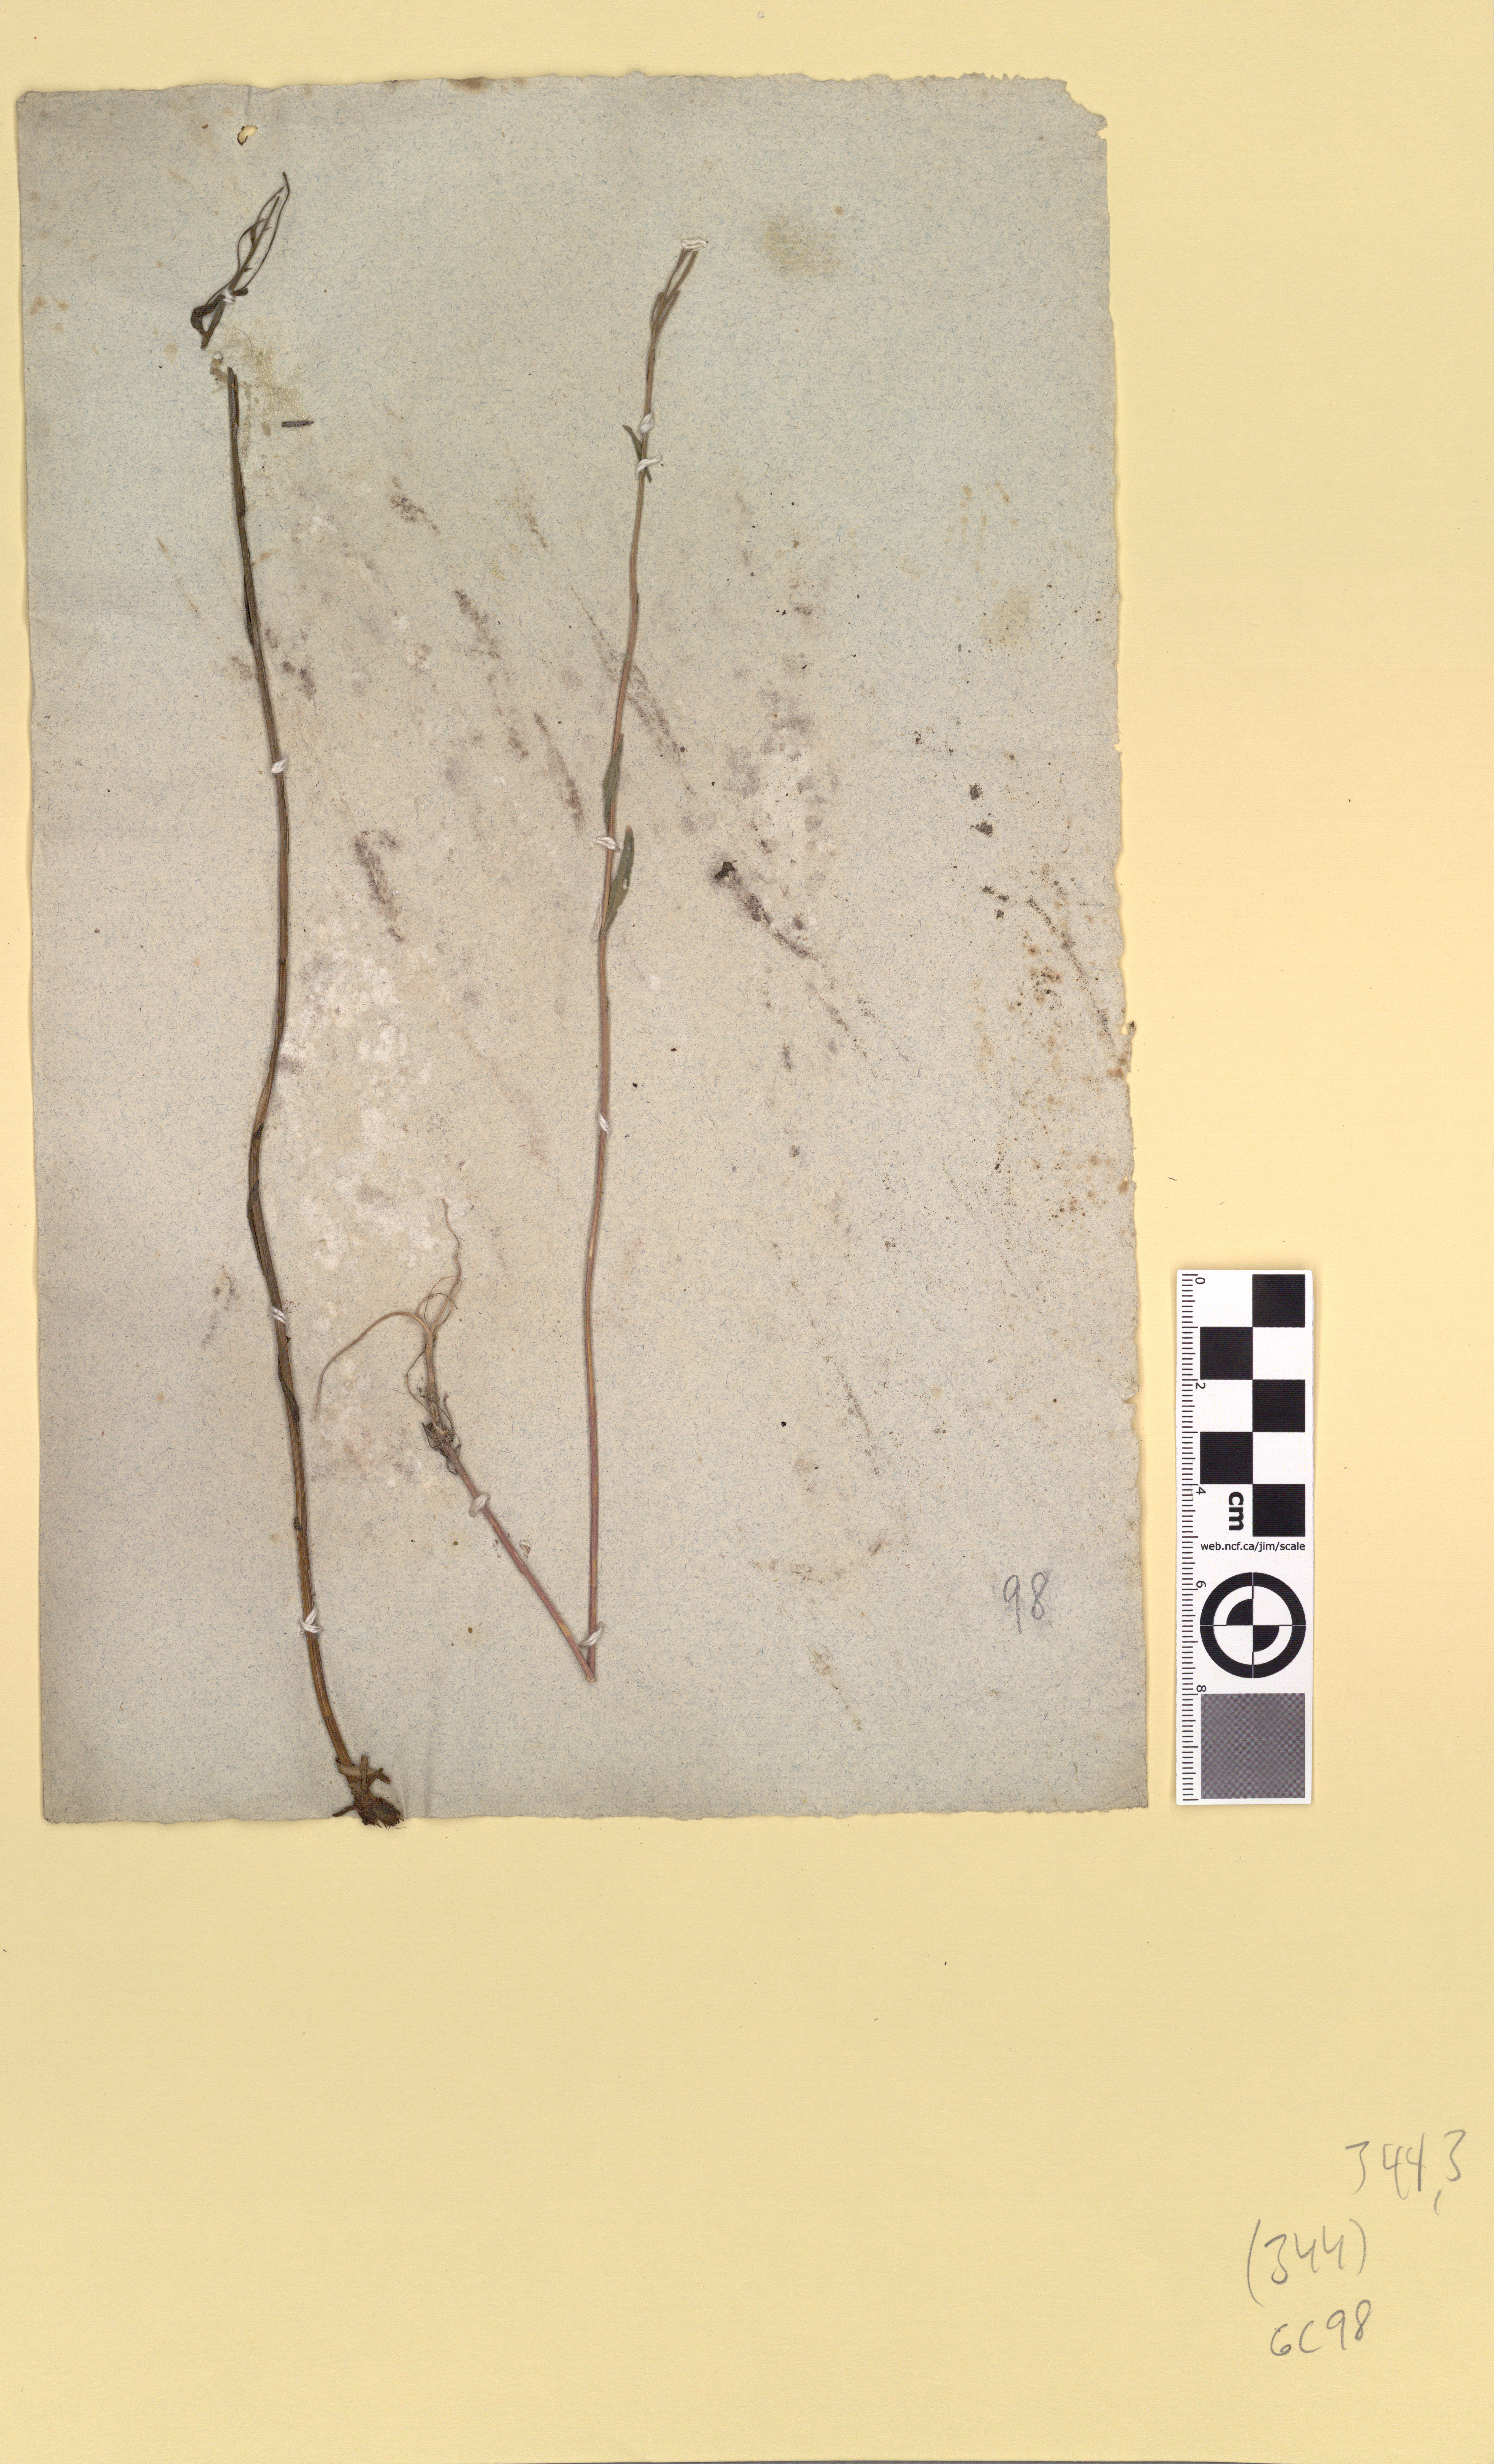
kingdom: Plantae
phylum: Tracheophyta
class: Magnoliopsida
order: Brassicales
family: Brassicaceae
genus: Arabis
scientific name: Arabis hirsuta
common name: Hairy rock-cress
